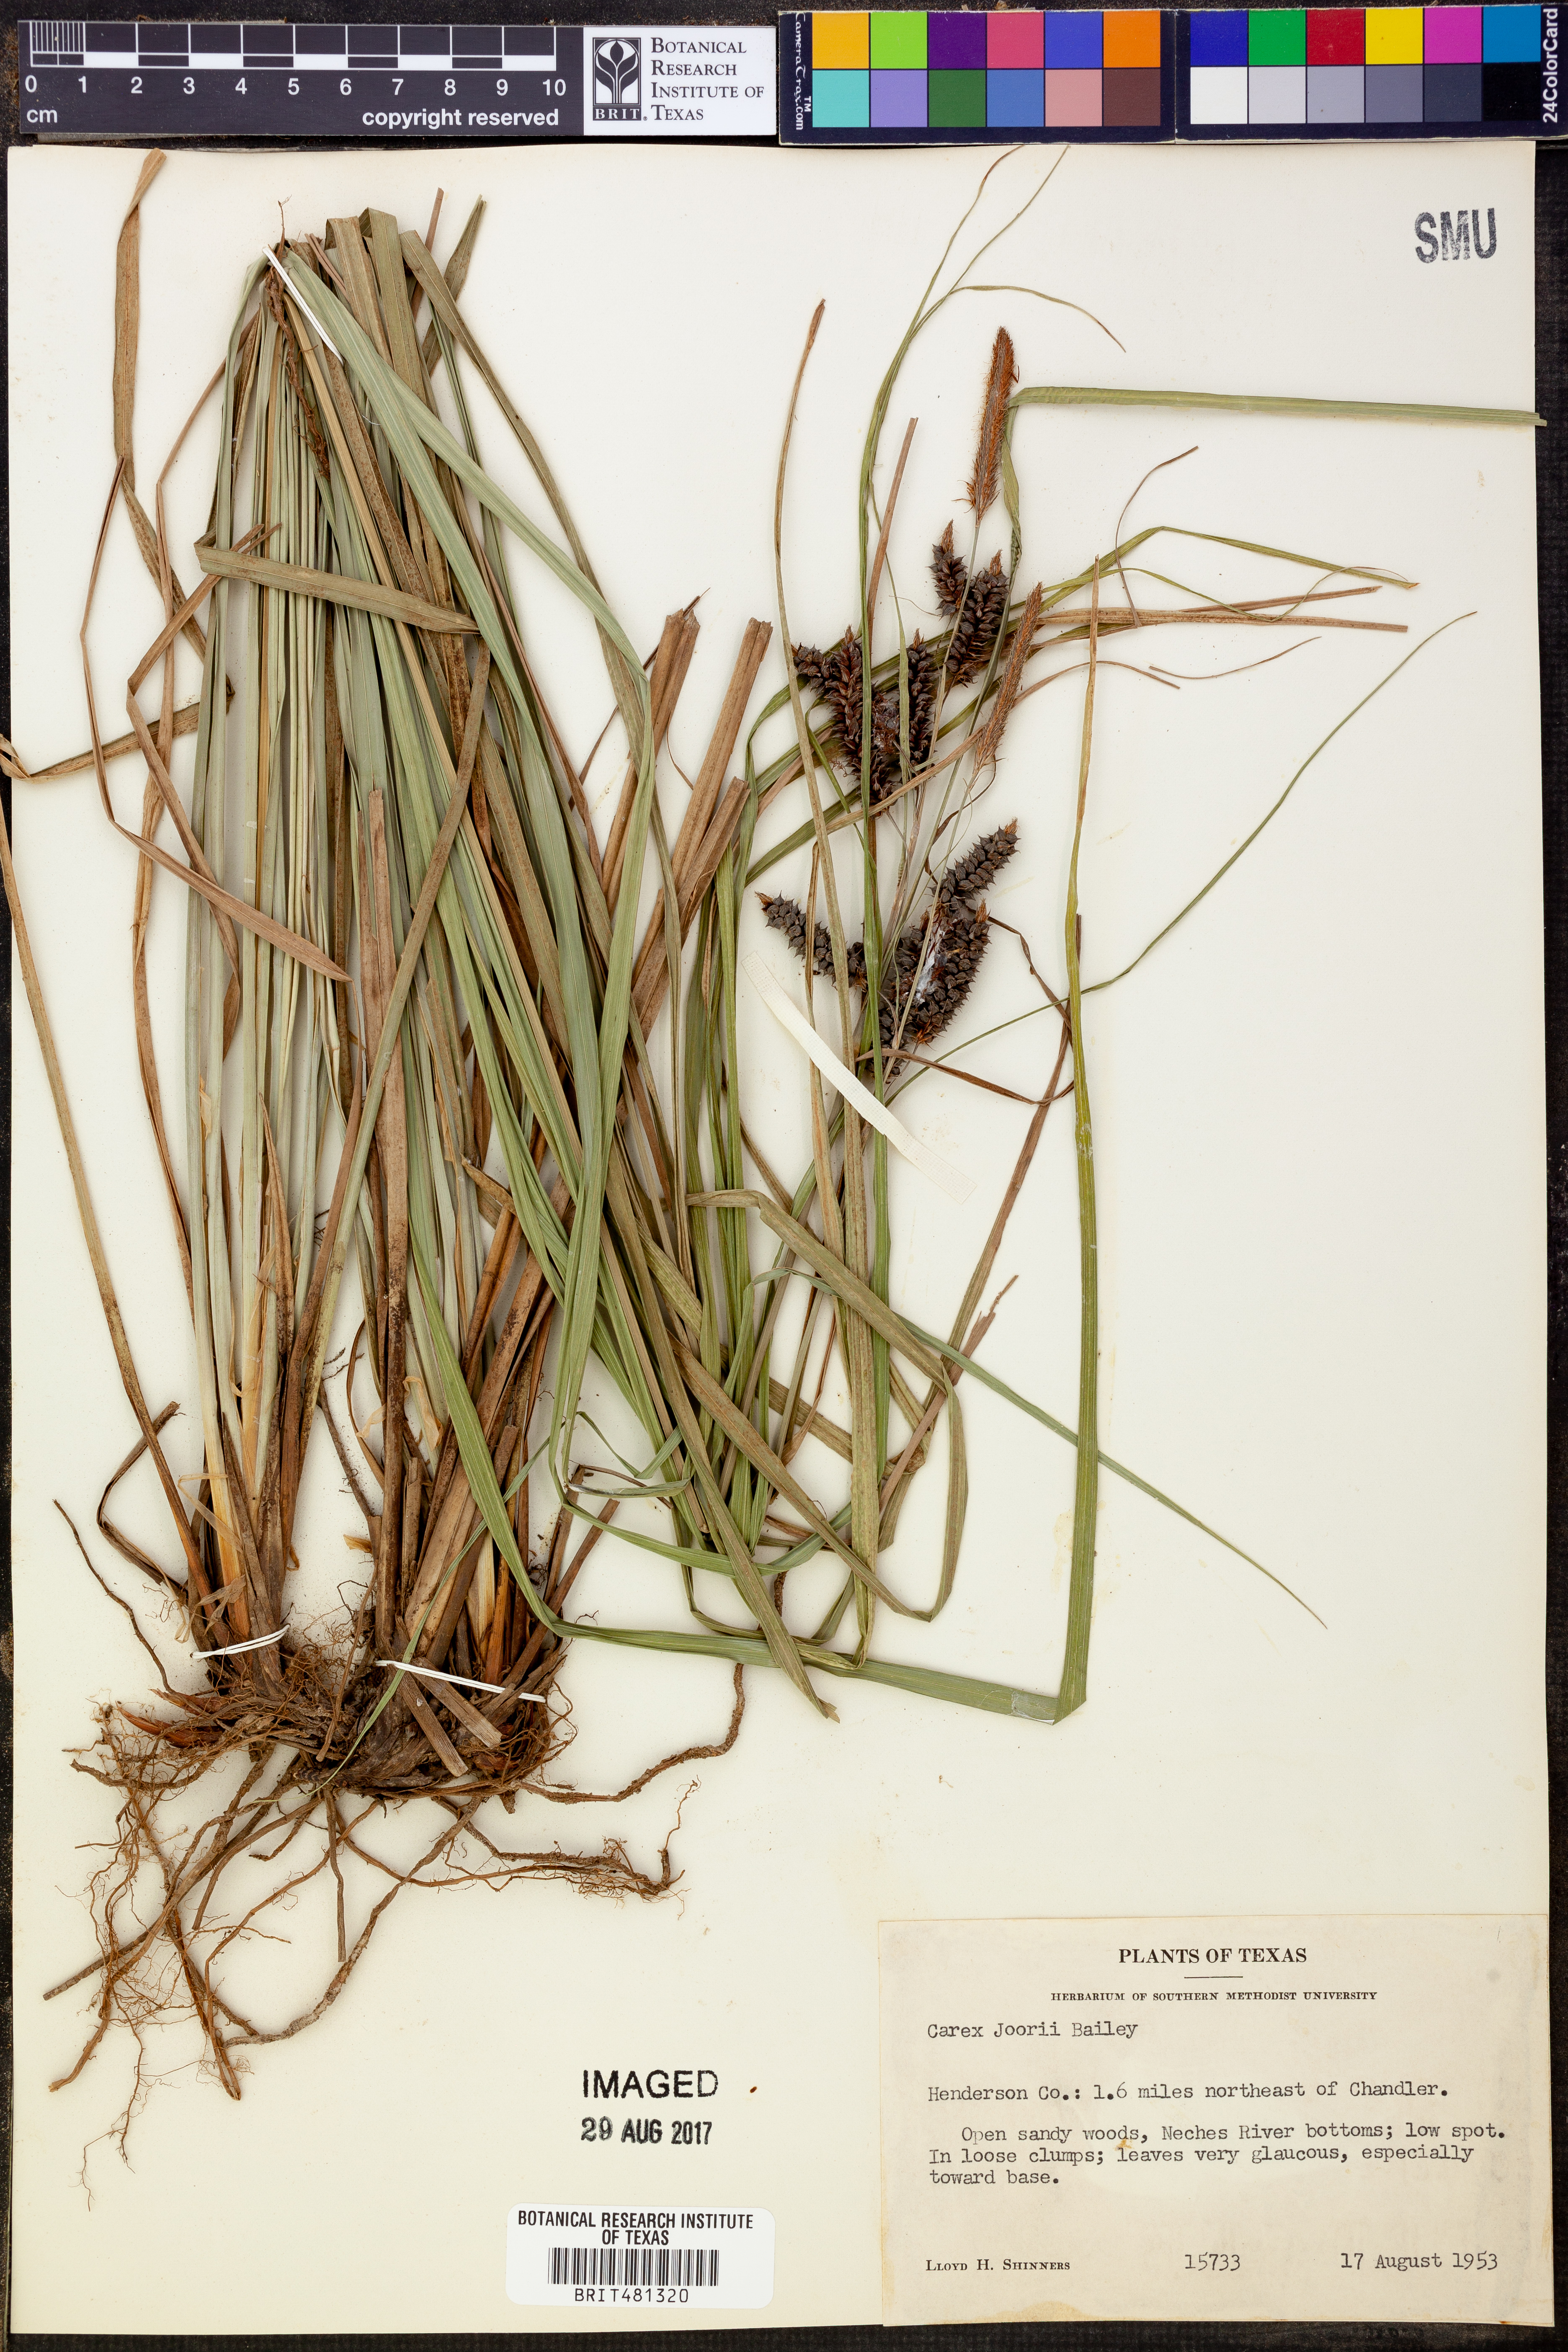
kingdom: Plantae
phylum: Tracheophyta
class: Liliopsida
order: Poales
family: Cyperaceae
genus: Carex
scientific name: Carex joorii
